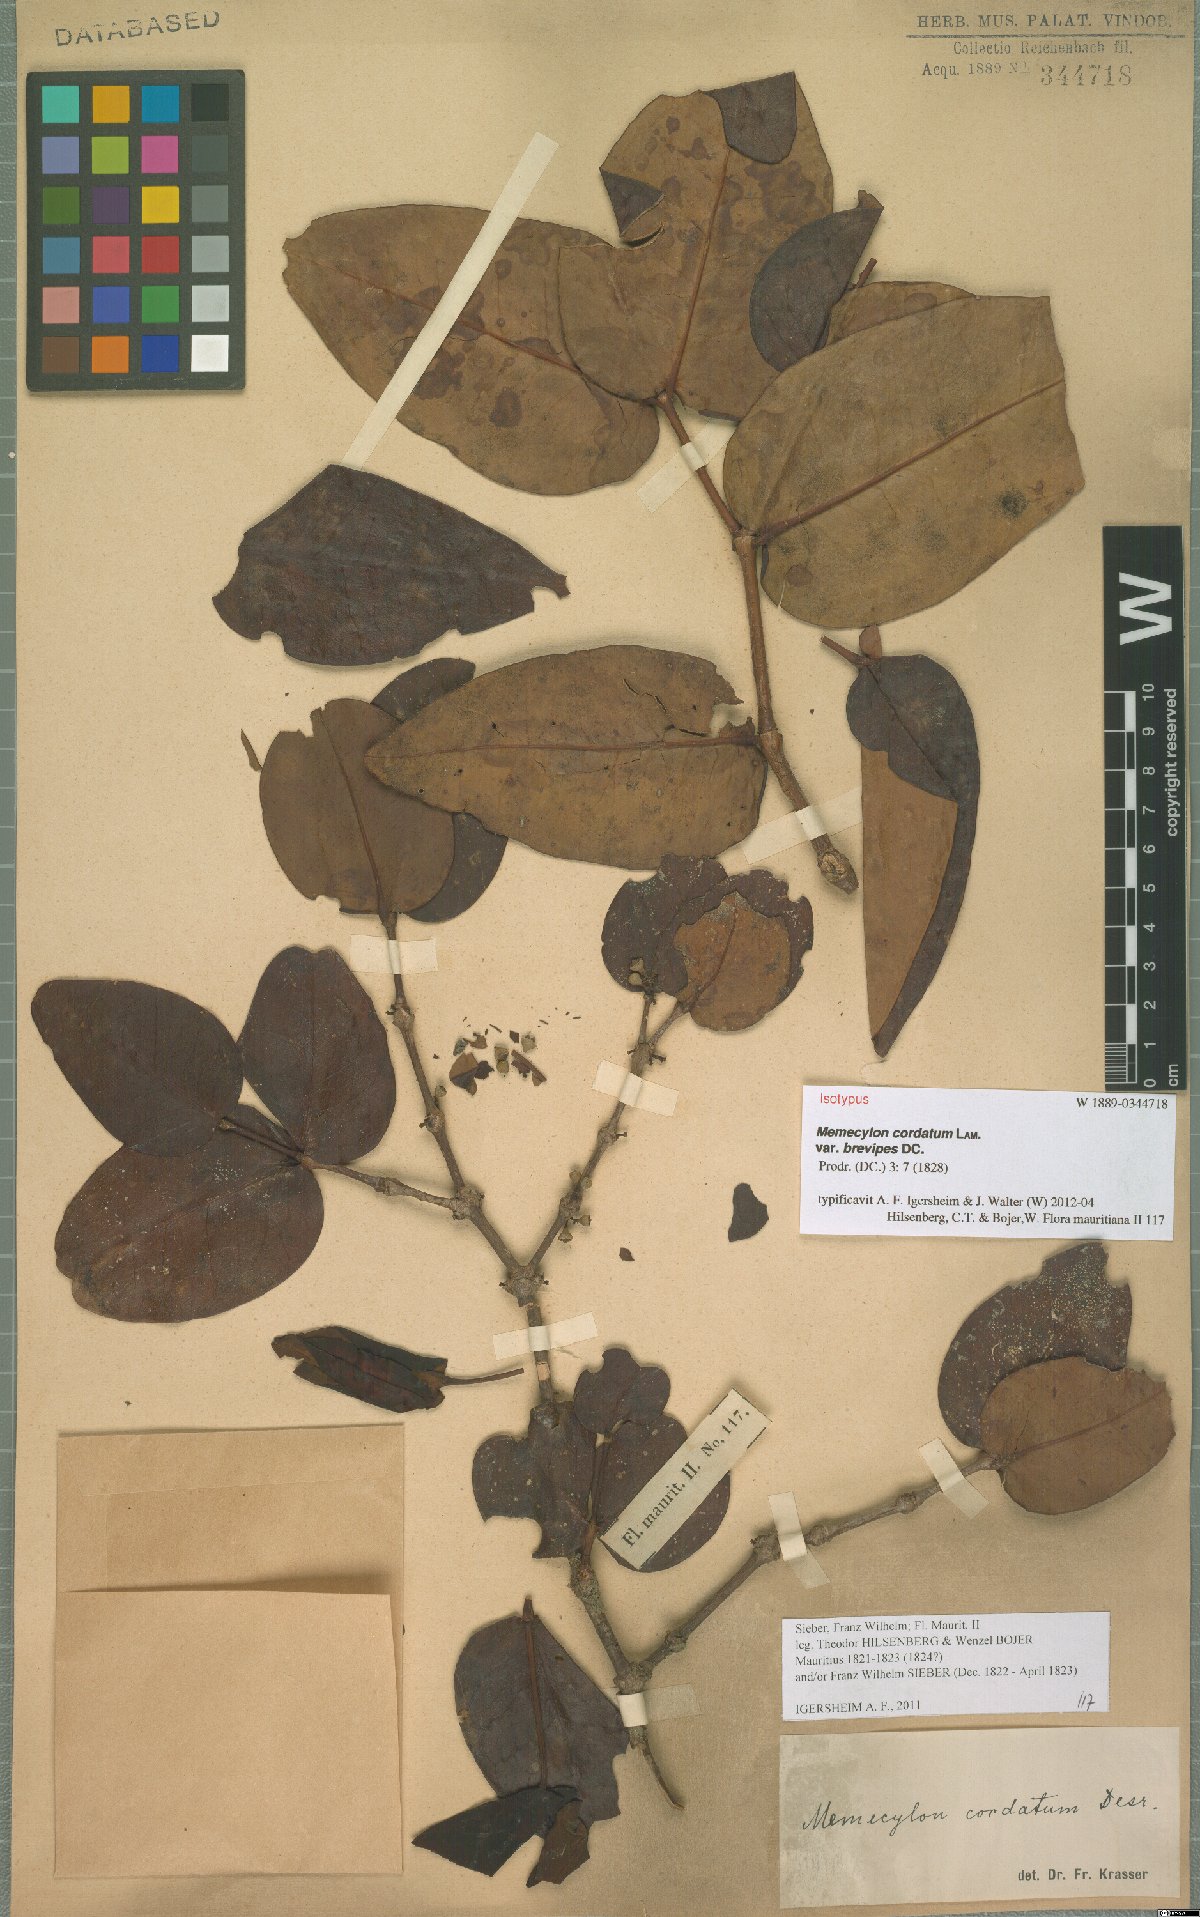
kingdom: Plantae
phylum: Tracheophyta
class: Magnoliopsida
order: Myrtales
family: Melastomataceae
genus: Memecylon
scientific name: Memecylon cordatum
